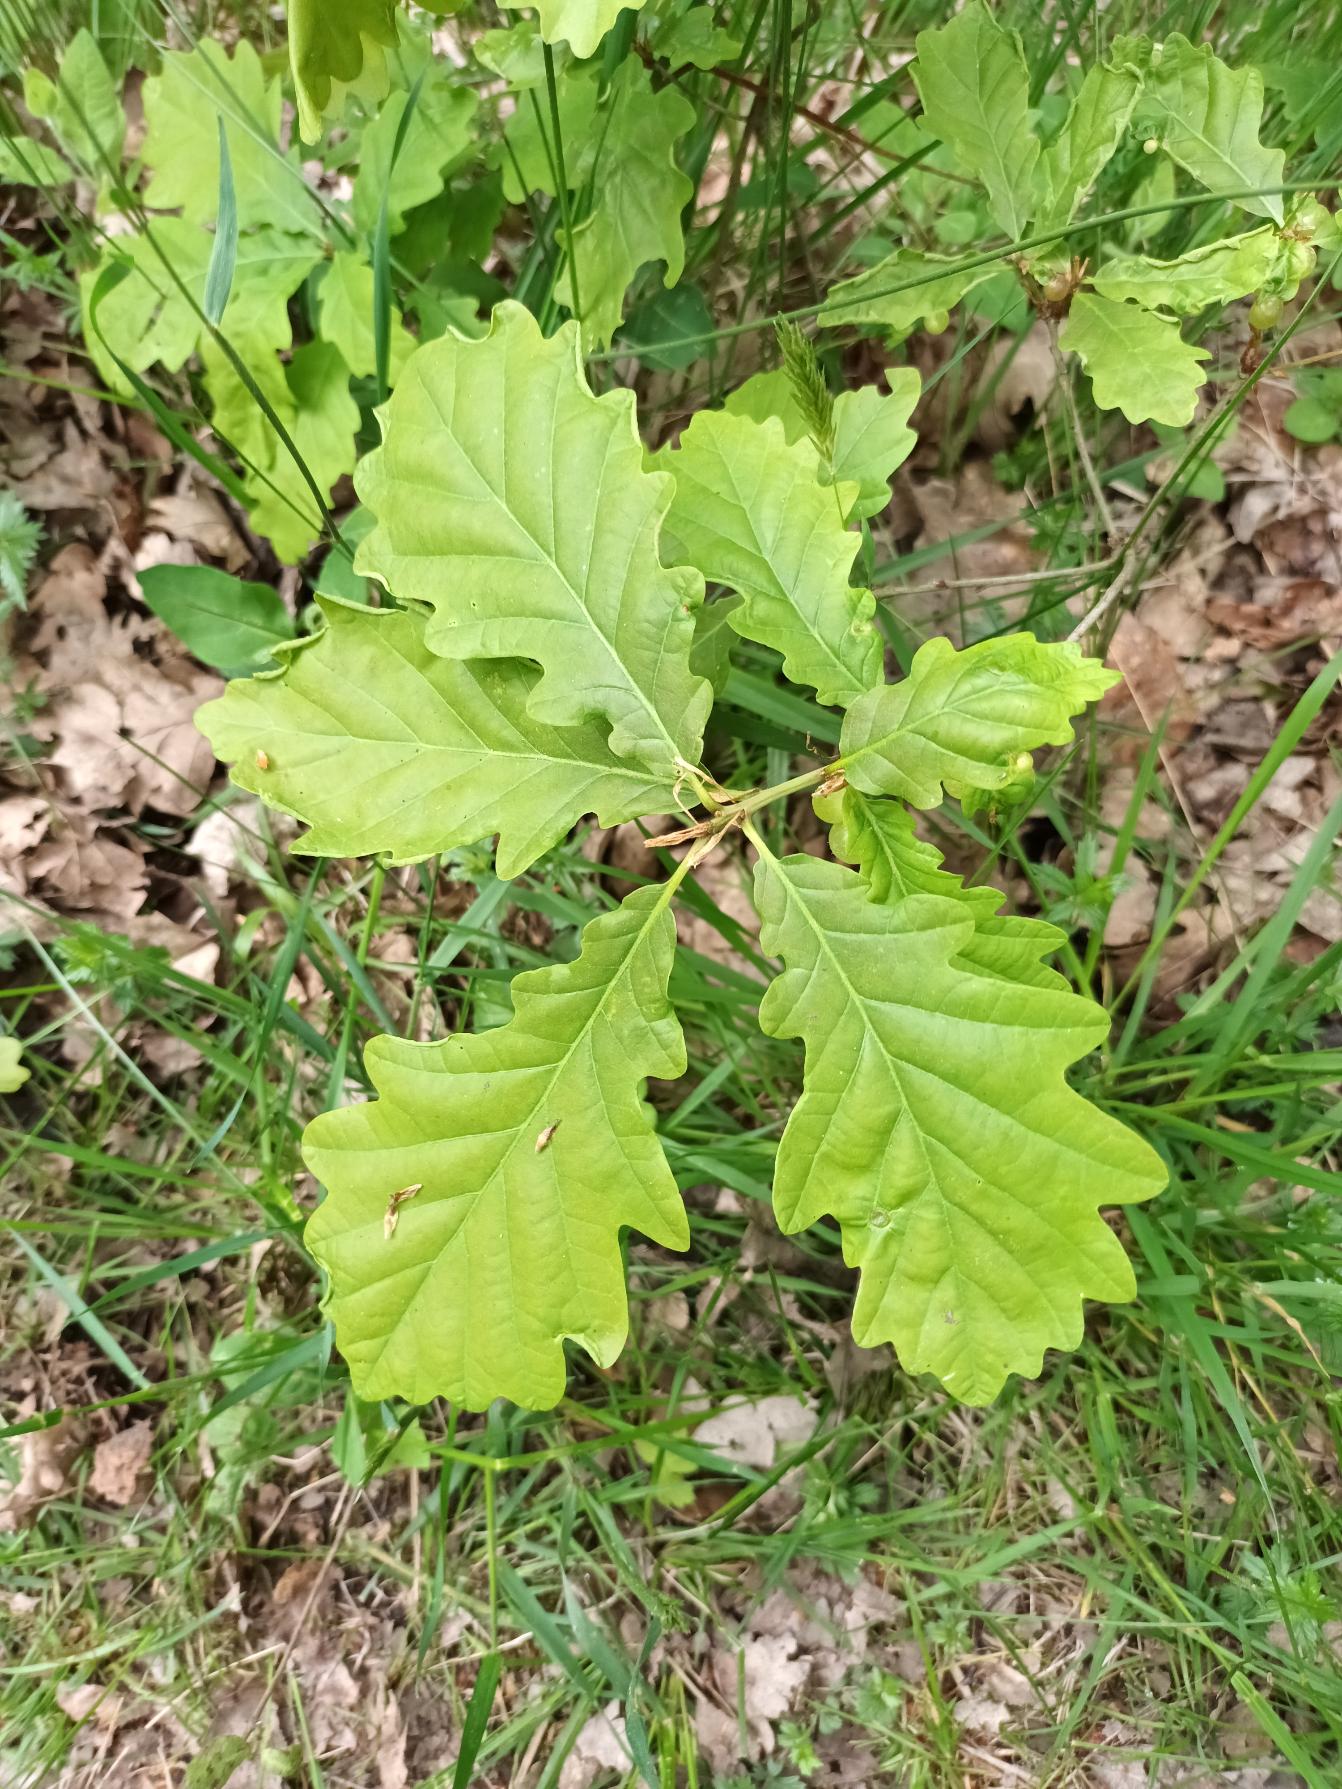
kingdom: Plantae
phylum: Tracheophyta
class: Magnoliopsida
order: Fagales
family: Fagaceae
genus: Quercus
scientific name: Quercus robur
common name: Stilk-eg/almindelig eg
